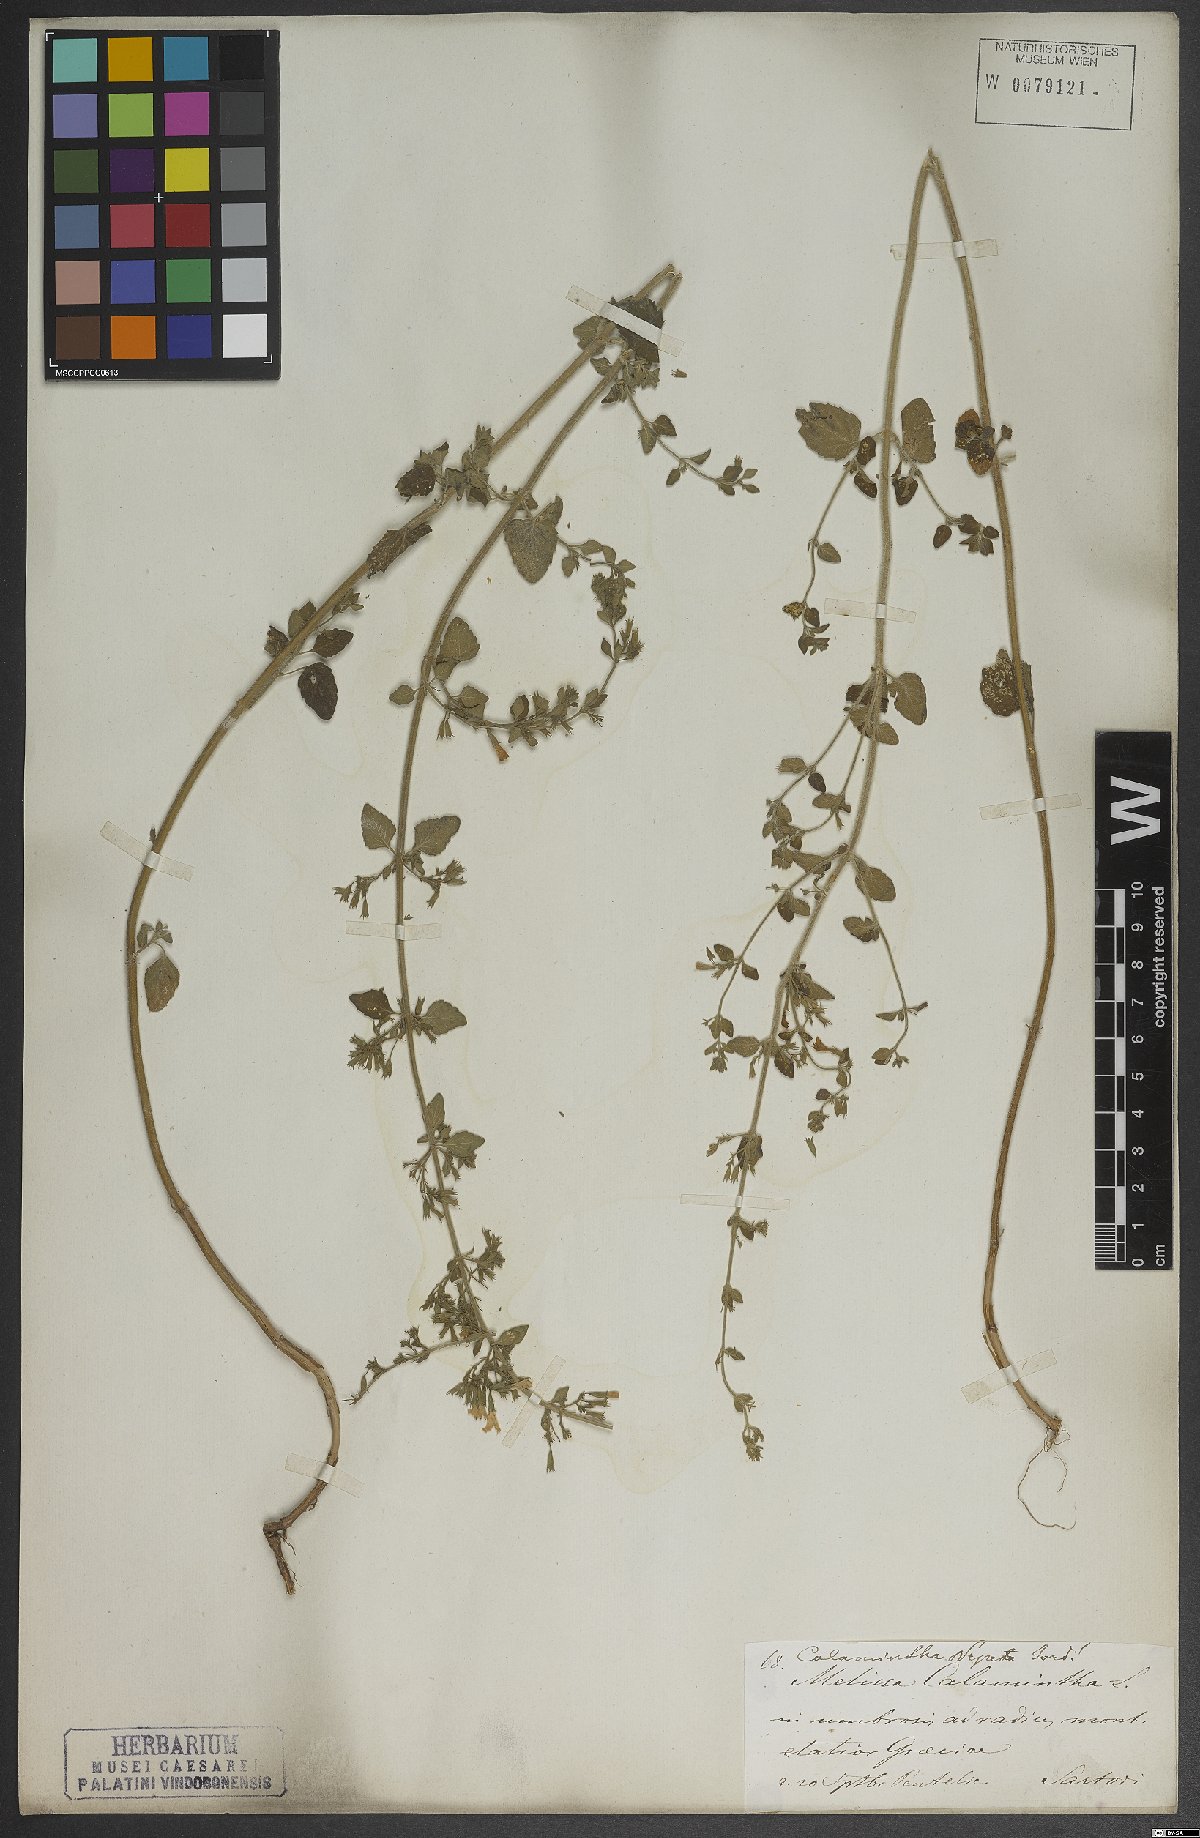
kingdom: Plantae
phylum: Tracheophyta
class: Magnoliopsida
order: Lamiales
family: Lamiaceae
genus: Clinopodium
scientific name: Clinopodium nepeta
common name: Lesser calamint
